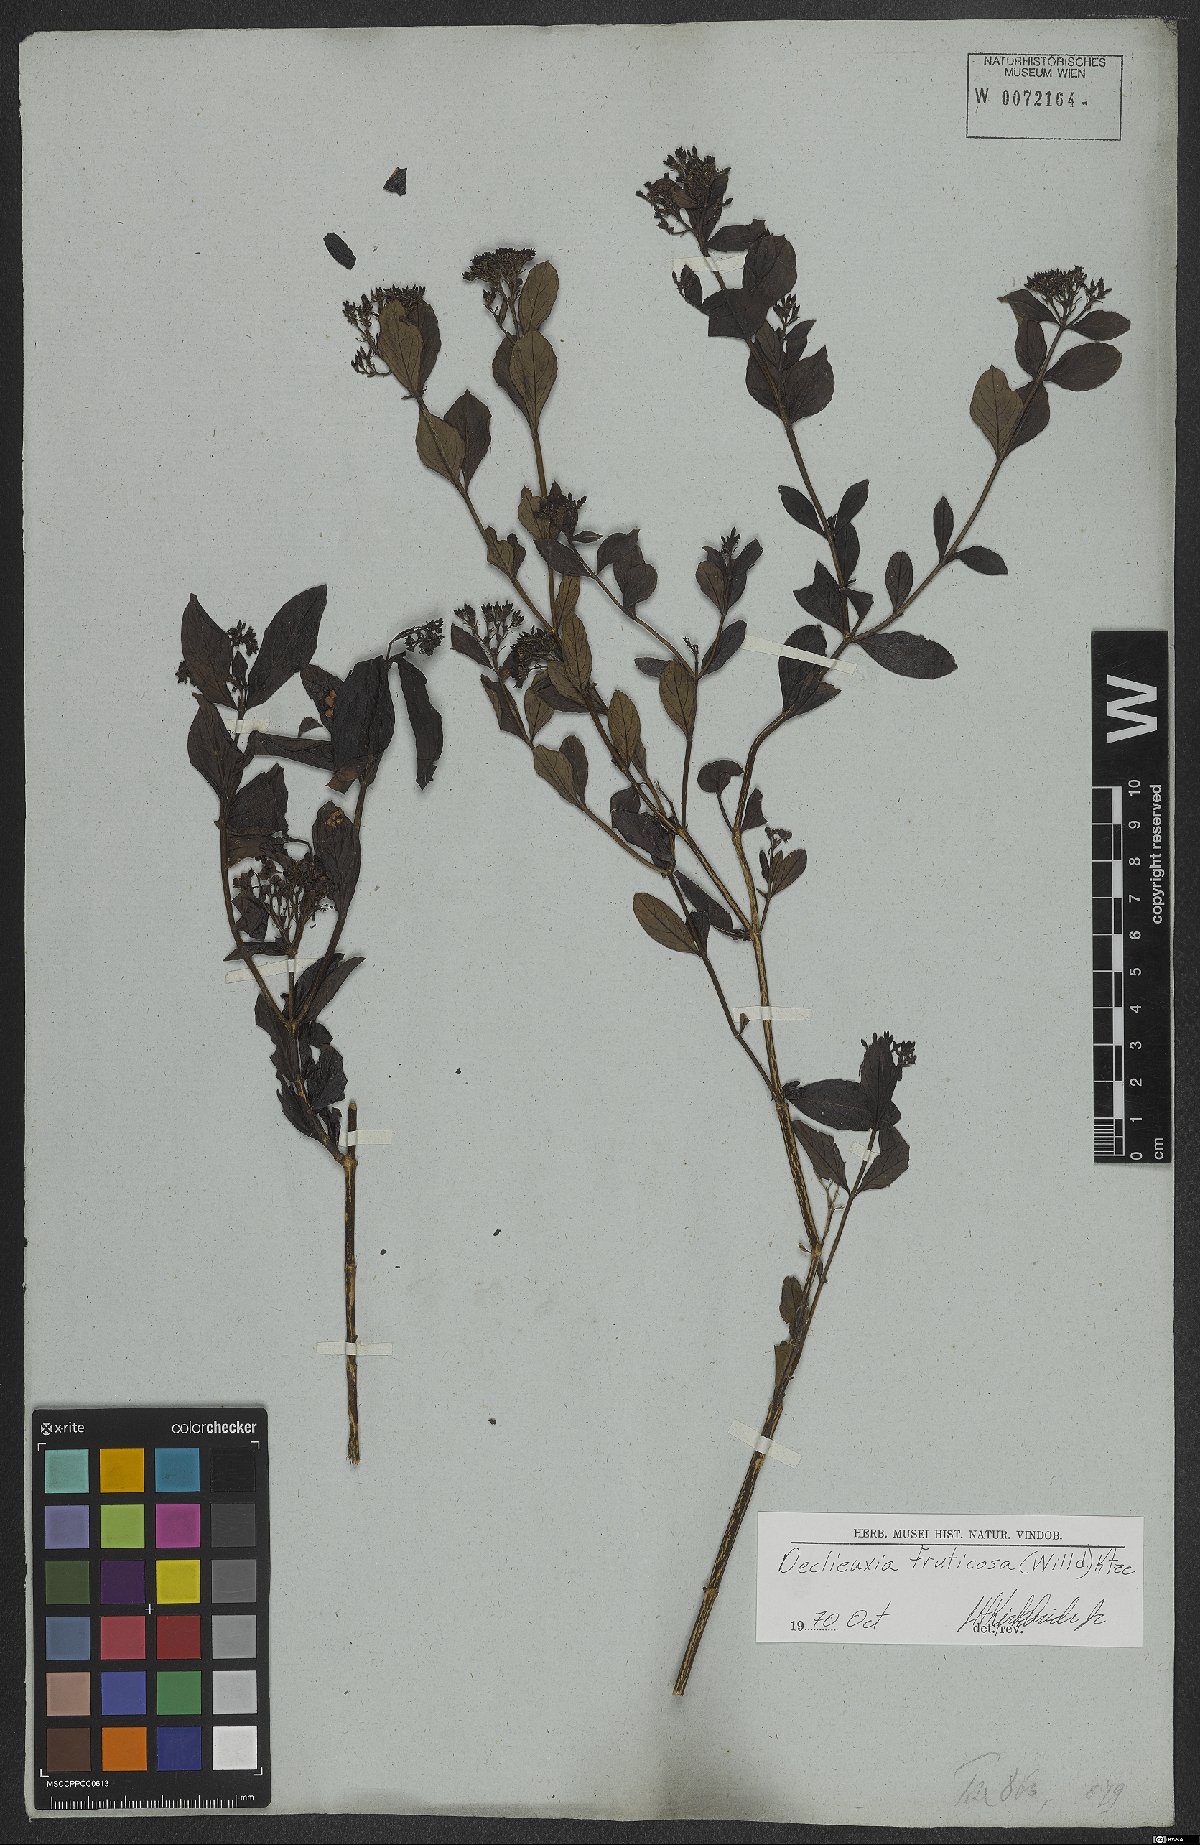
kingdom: Plantae
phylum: Tracheophyta
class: Magnoliopsida
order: Gentianales
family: Rubiaceae
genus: Declieuxia
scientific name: Declieuxia fruticosa
